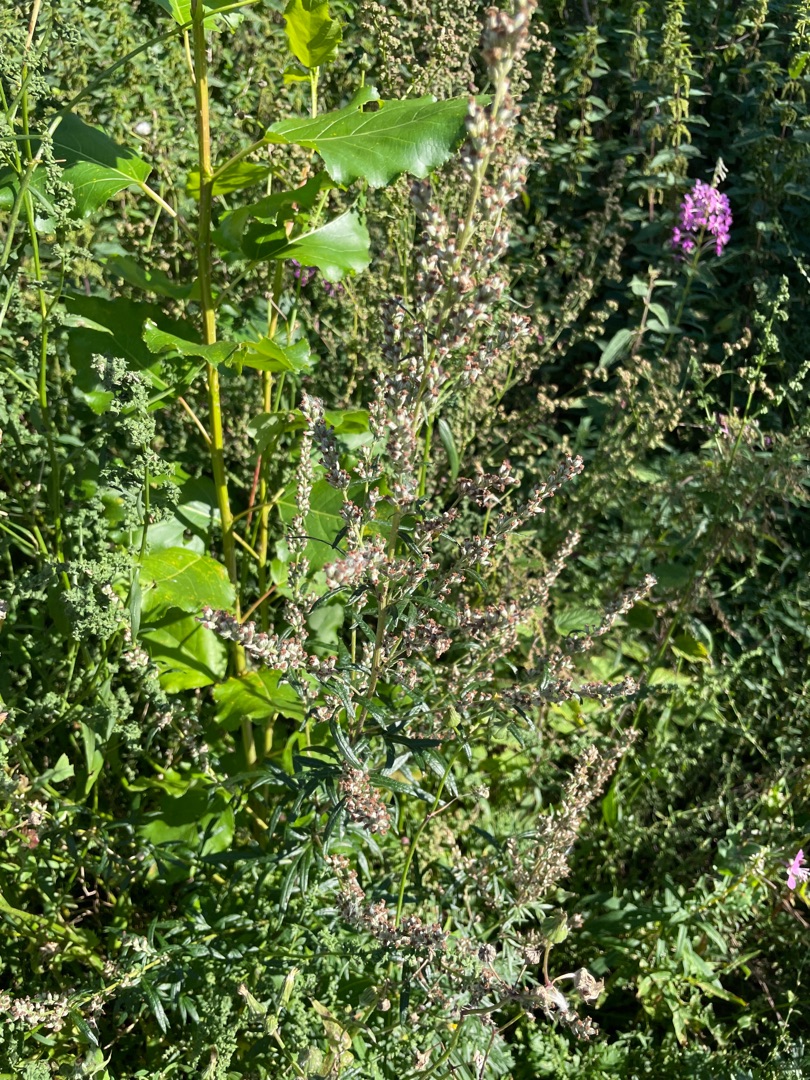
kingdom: Plantae
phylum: Tracheophyta
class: Magnoliopsida
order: Asterales
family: Asteraceae
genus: Artemisia
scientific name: Artemisia vulgaris
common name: Grå-bynke
